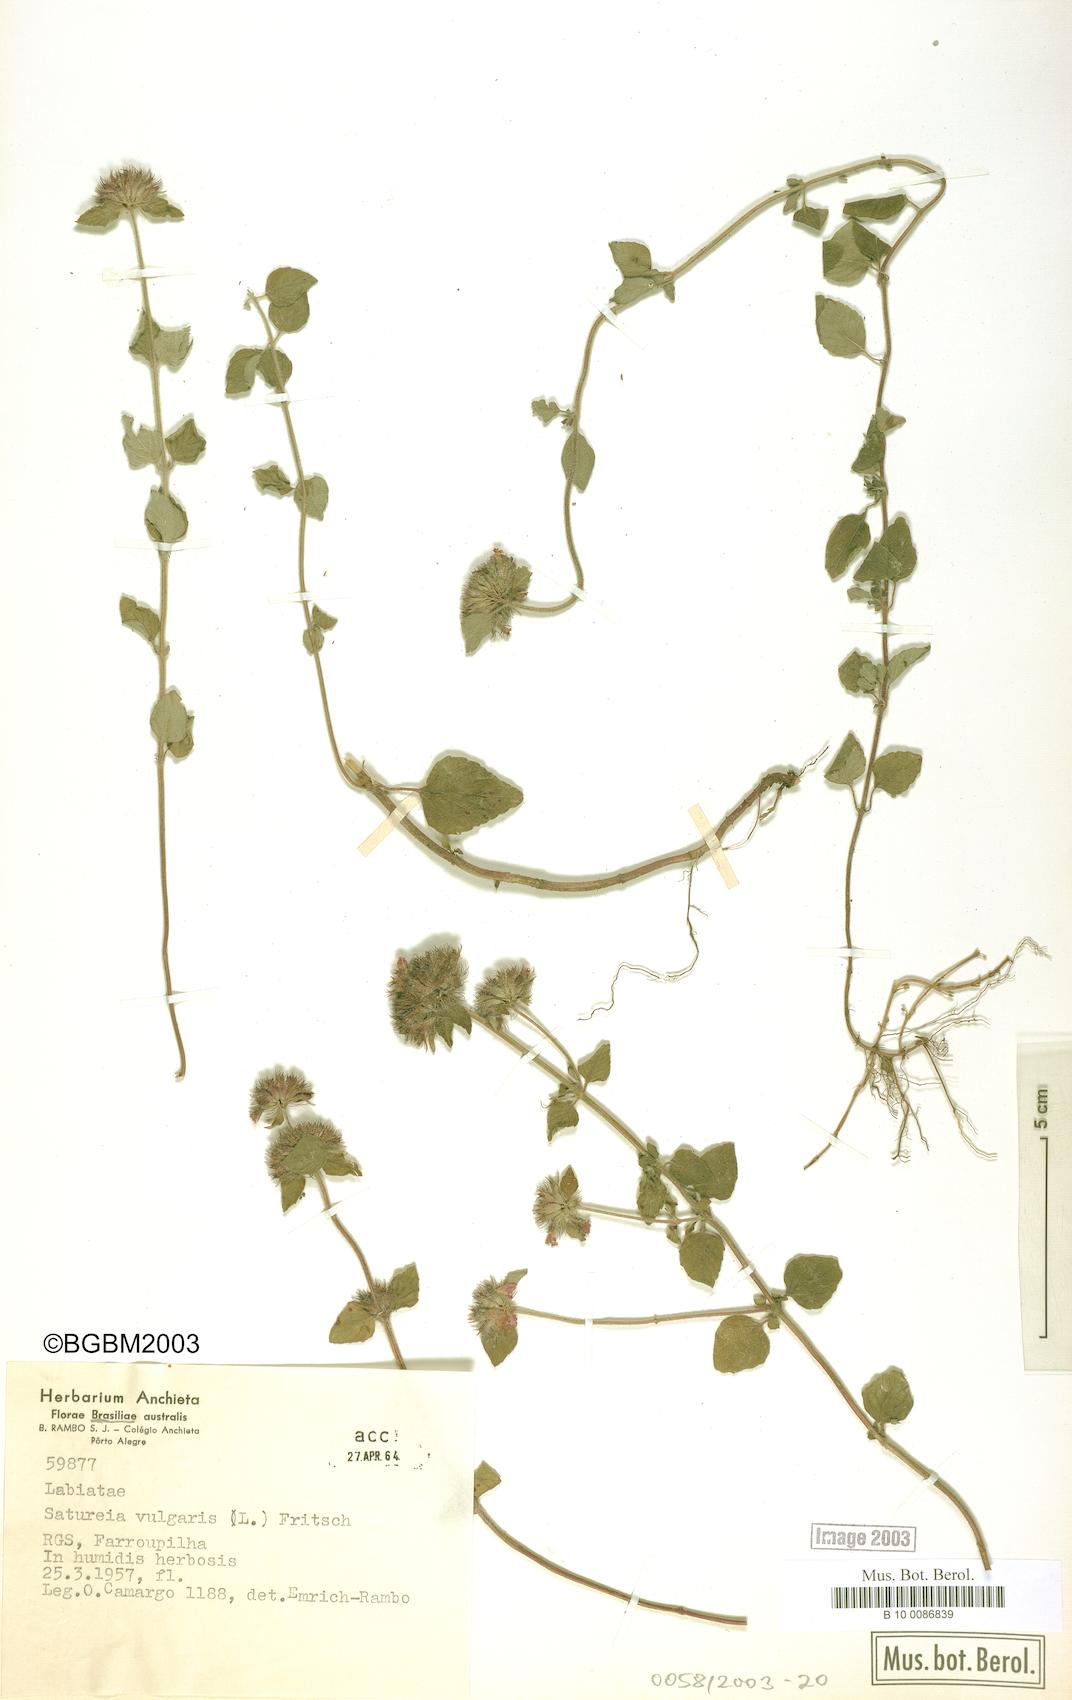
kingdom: Plantae
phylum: Tracheophyta
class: Magnoliopsida
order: Lamiales
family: Lamiaceae
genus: Clinopodium
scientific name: Clinopodium
